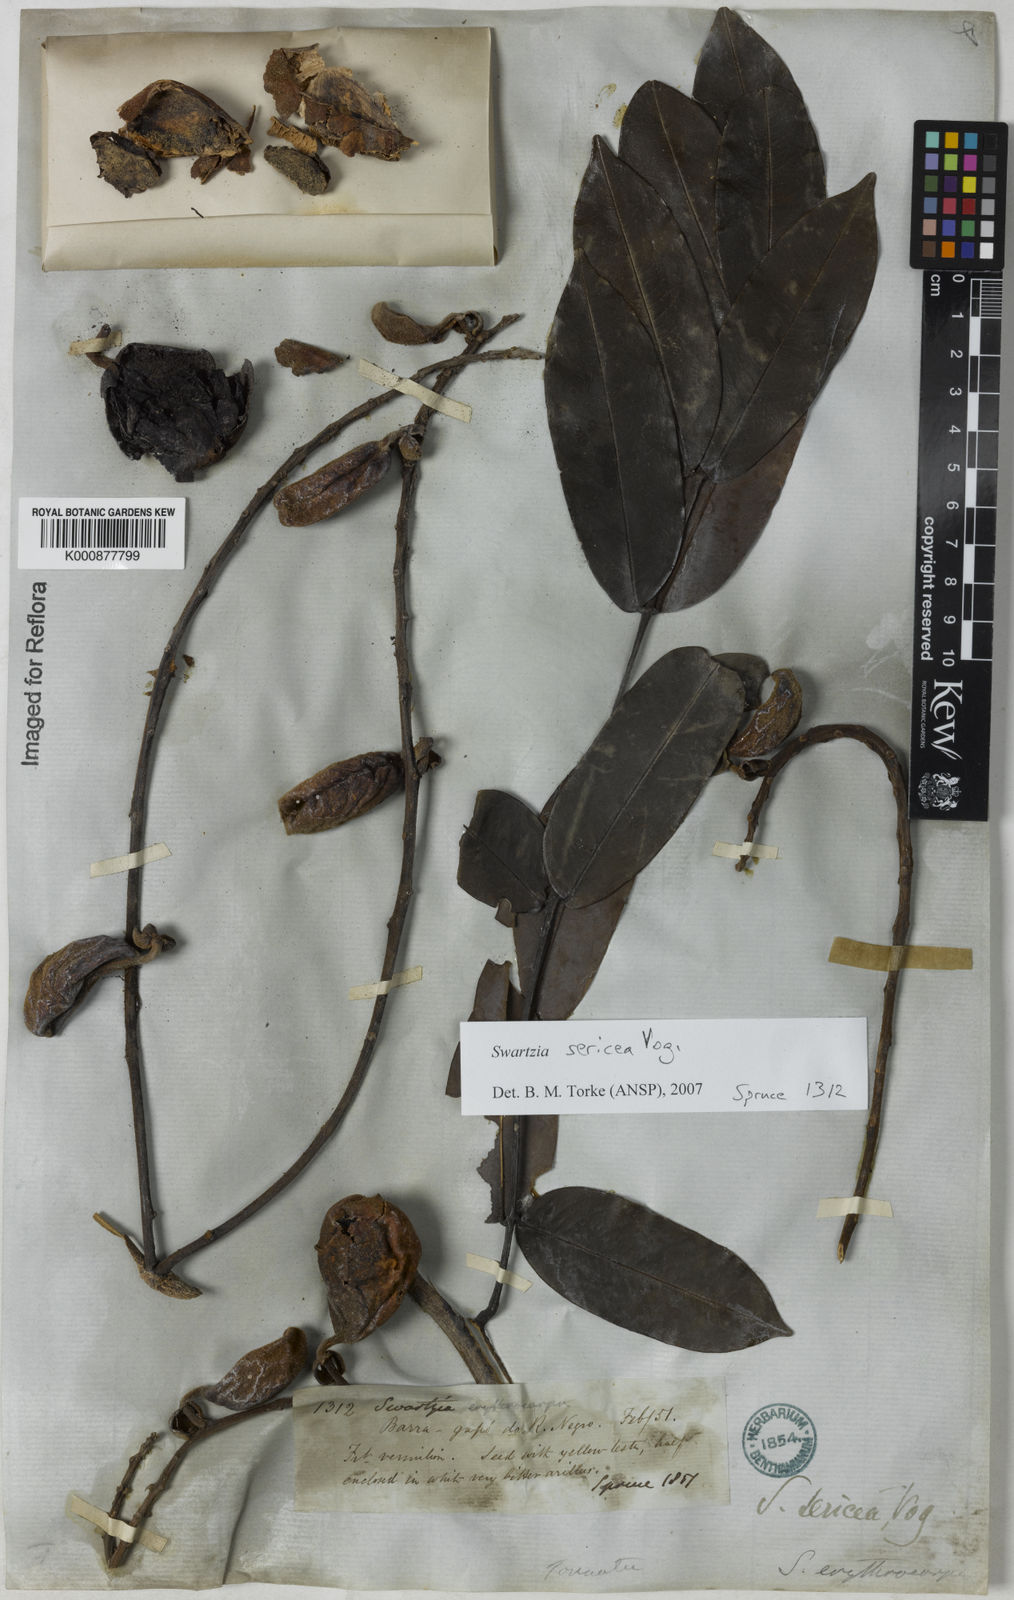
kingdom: Plantae
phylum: Tracheophyta
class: Magnoliopsida
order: Fabales
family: Fabaceae
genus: Swartzia
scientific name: Swartzia sericea
